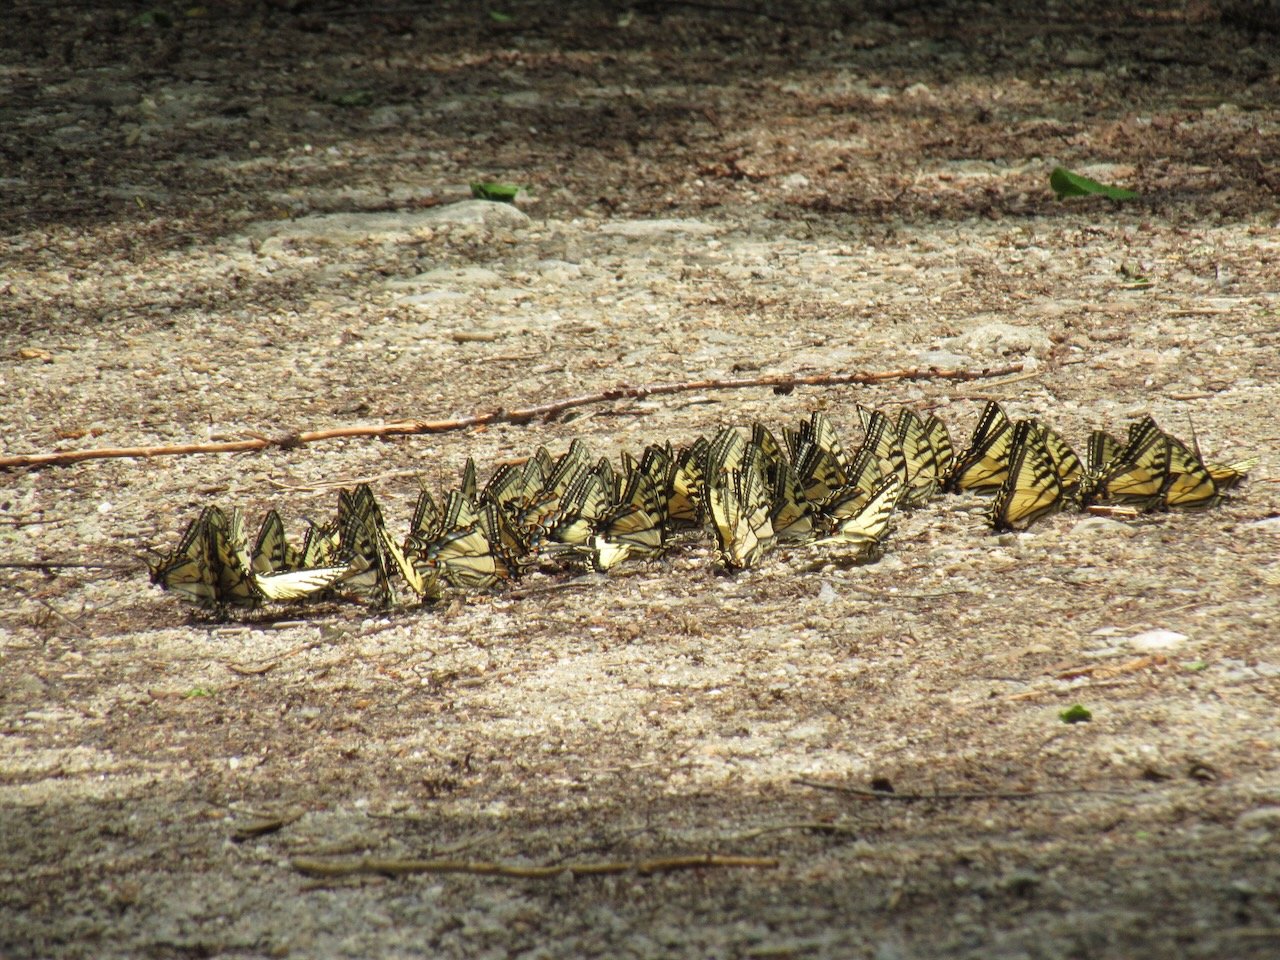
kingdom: Animalia
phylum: Arthropoda
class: Insecta
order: Lepidoptera
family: Papilionidae
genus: Pterourus
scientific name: Pterourus canadensis
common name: Canadian Tiger Swallowtail
